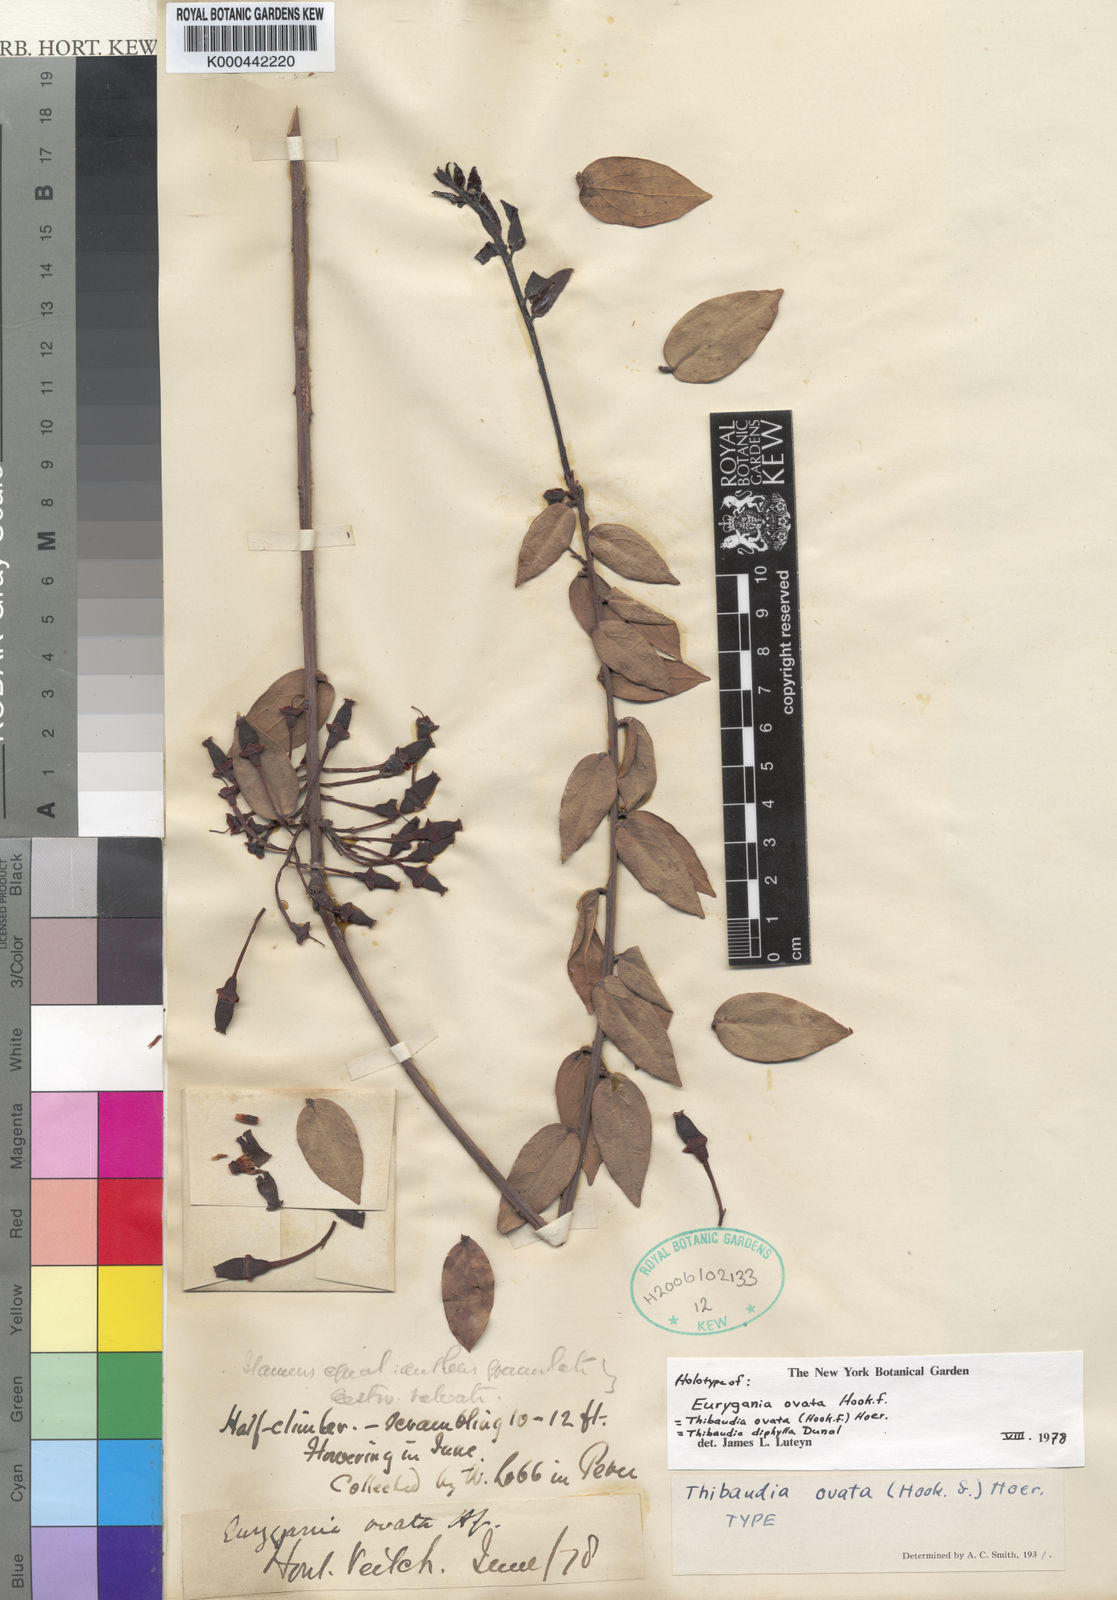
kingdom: Plantae
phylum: Tracheophyta
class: Magnoliopsida
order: Ericales
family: Ericaceae
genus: Thibaudia
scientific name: Thibaudia diphylla
